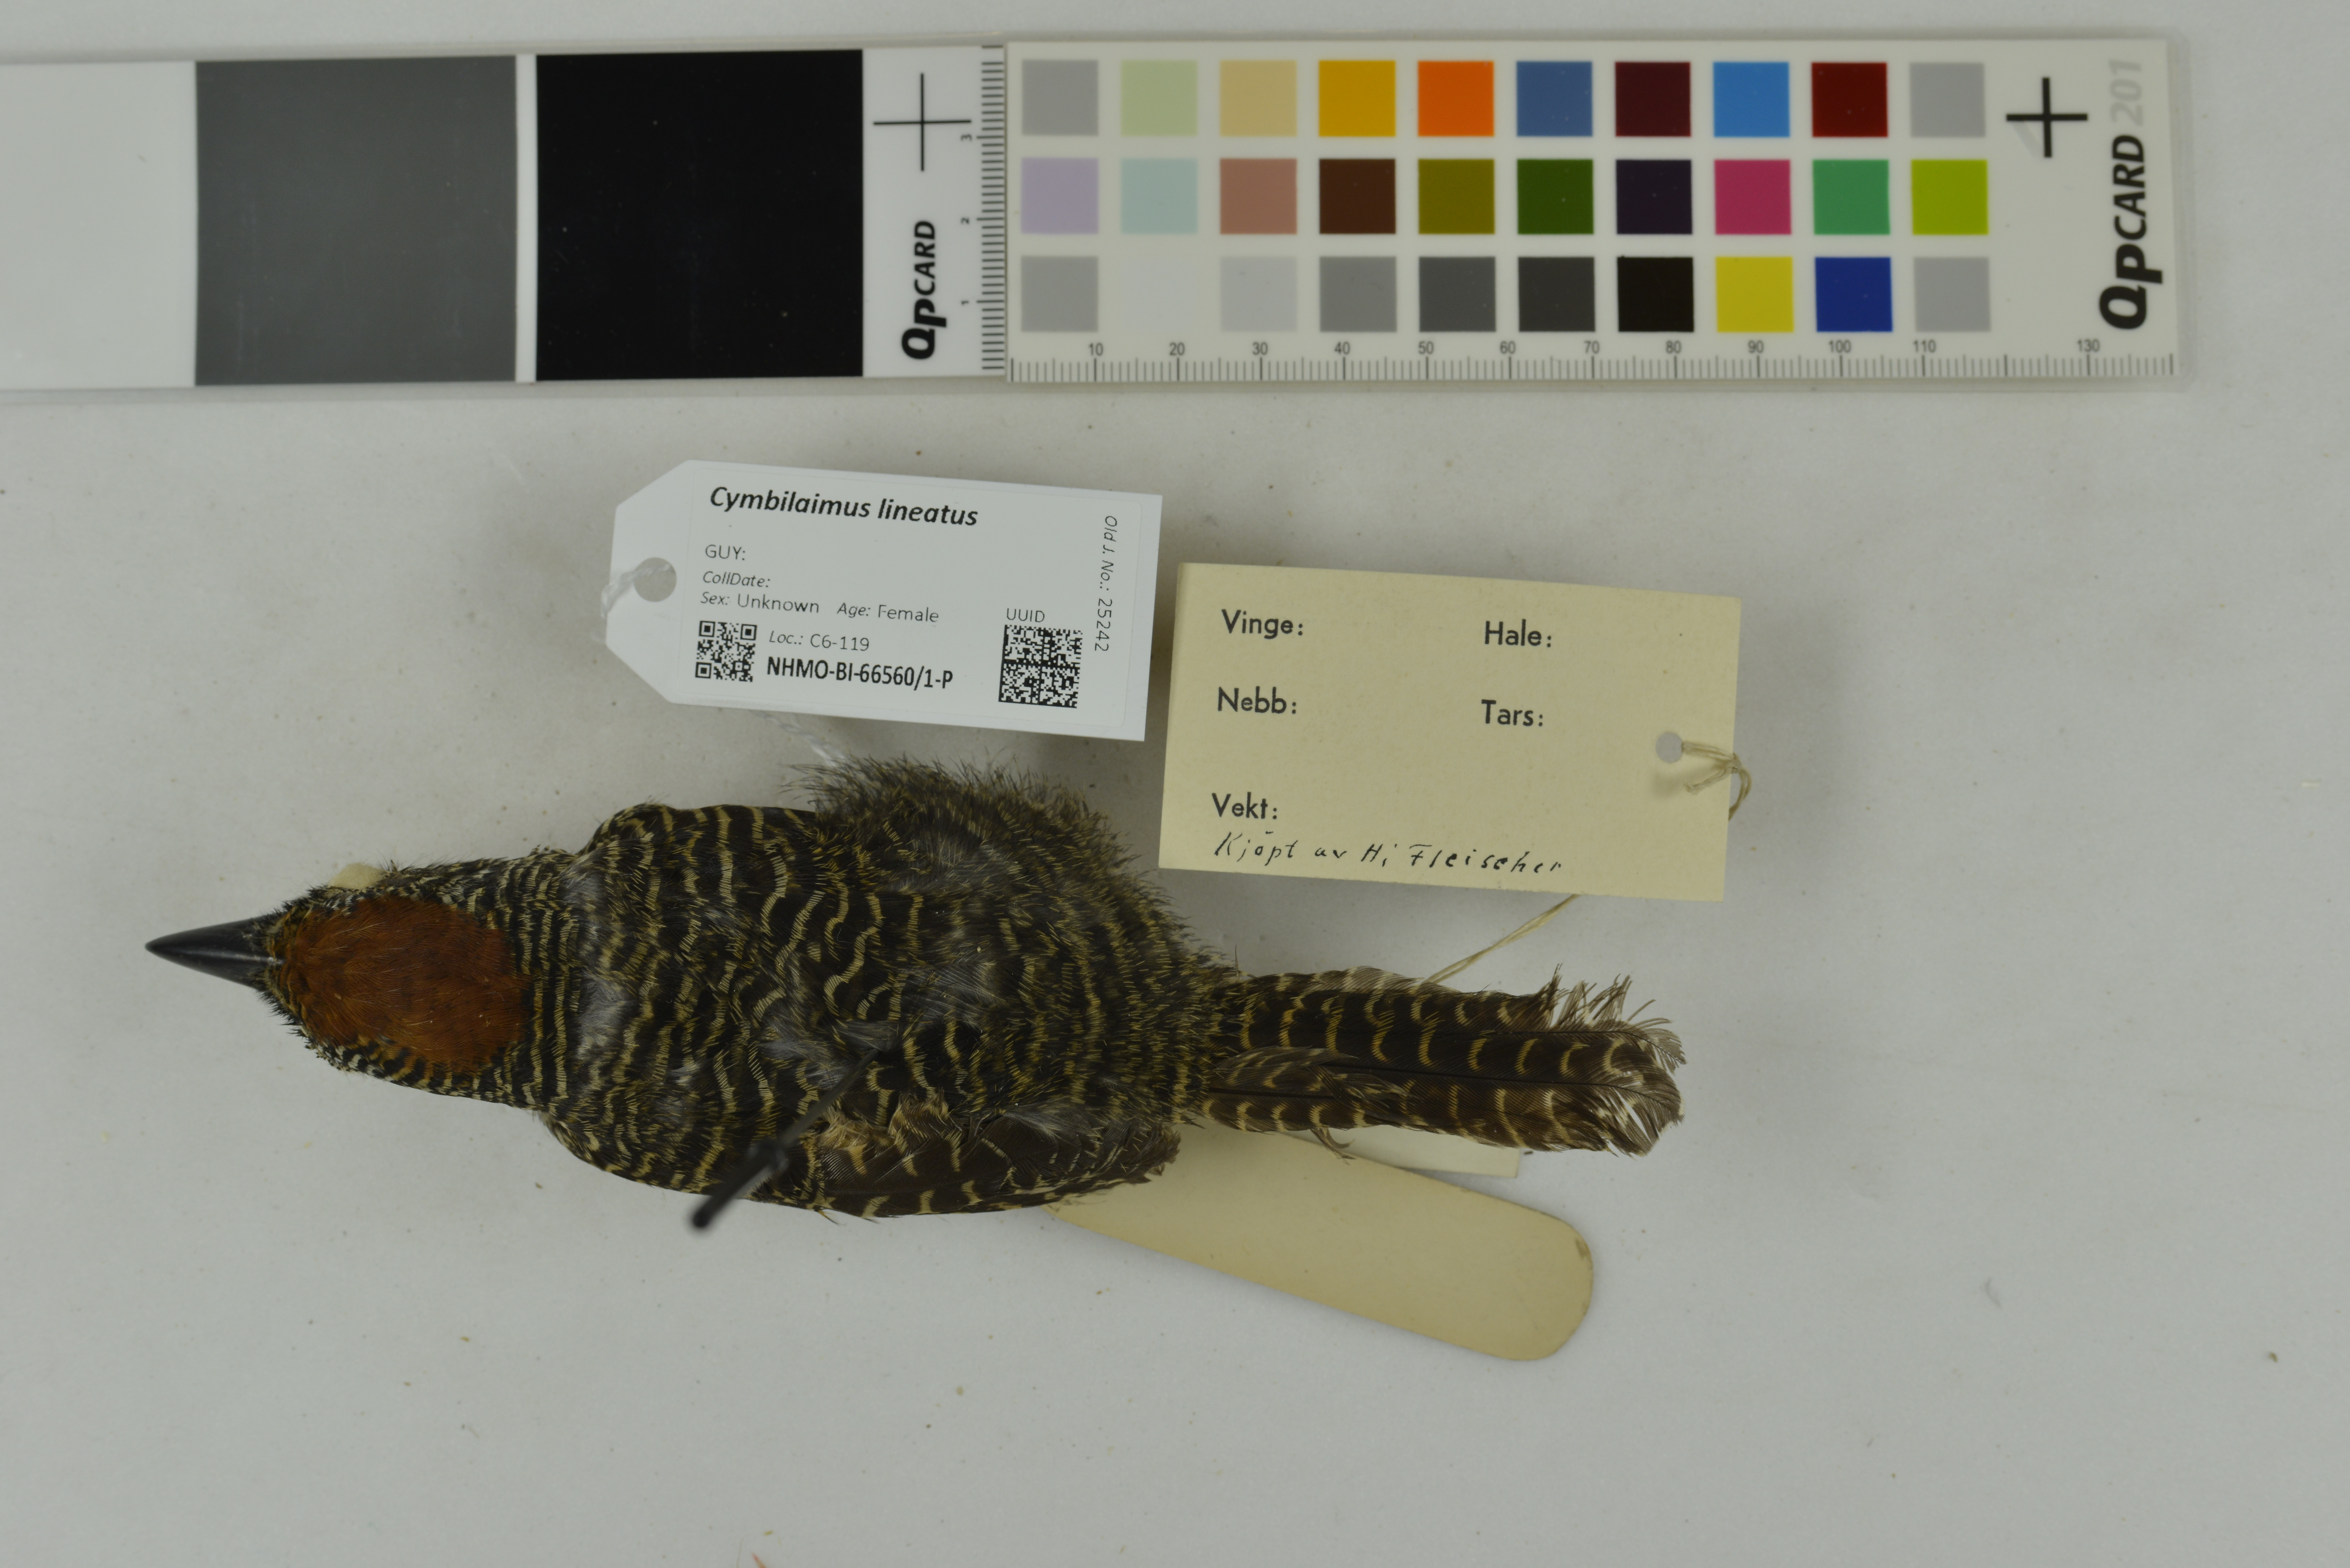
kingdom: Animalia
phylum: Chordata
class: Aves
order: Passeriformes
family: Thamnophilidae
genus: Cymbilaimus
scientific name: Cymbilaimus lineatus
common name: Fasciated antshrike
